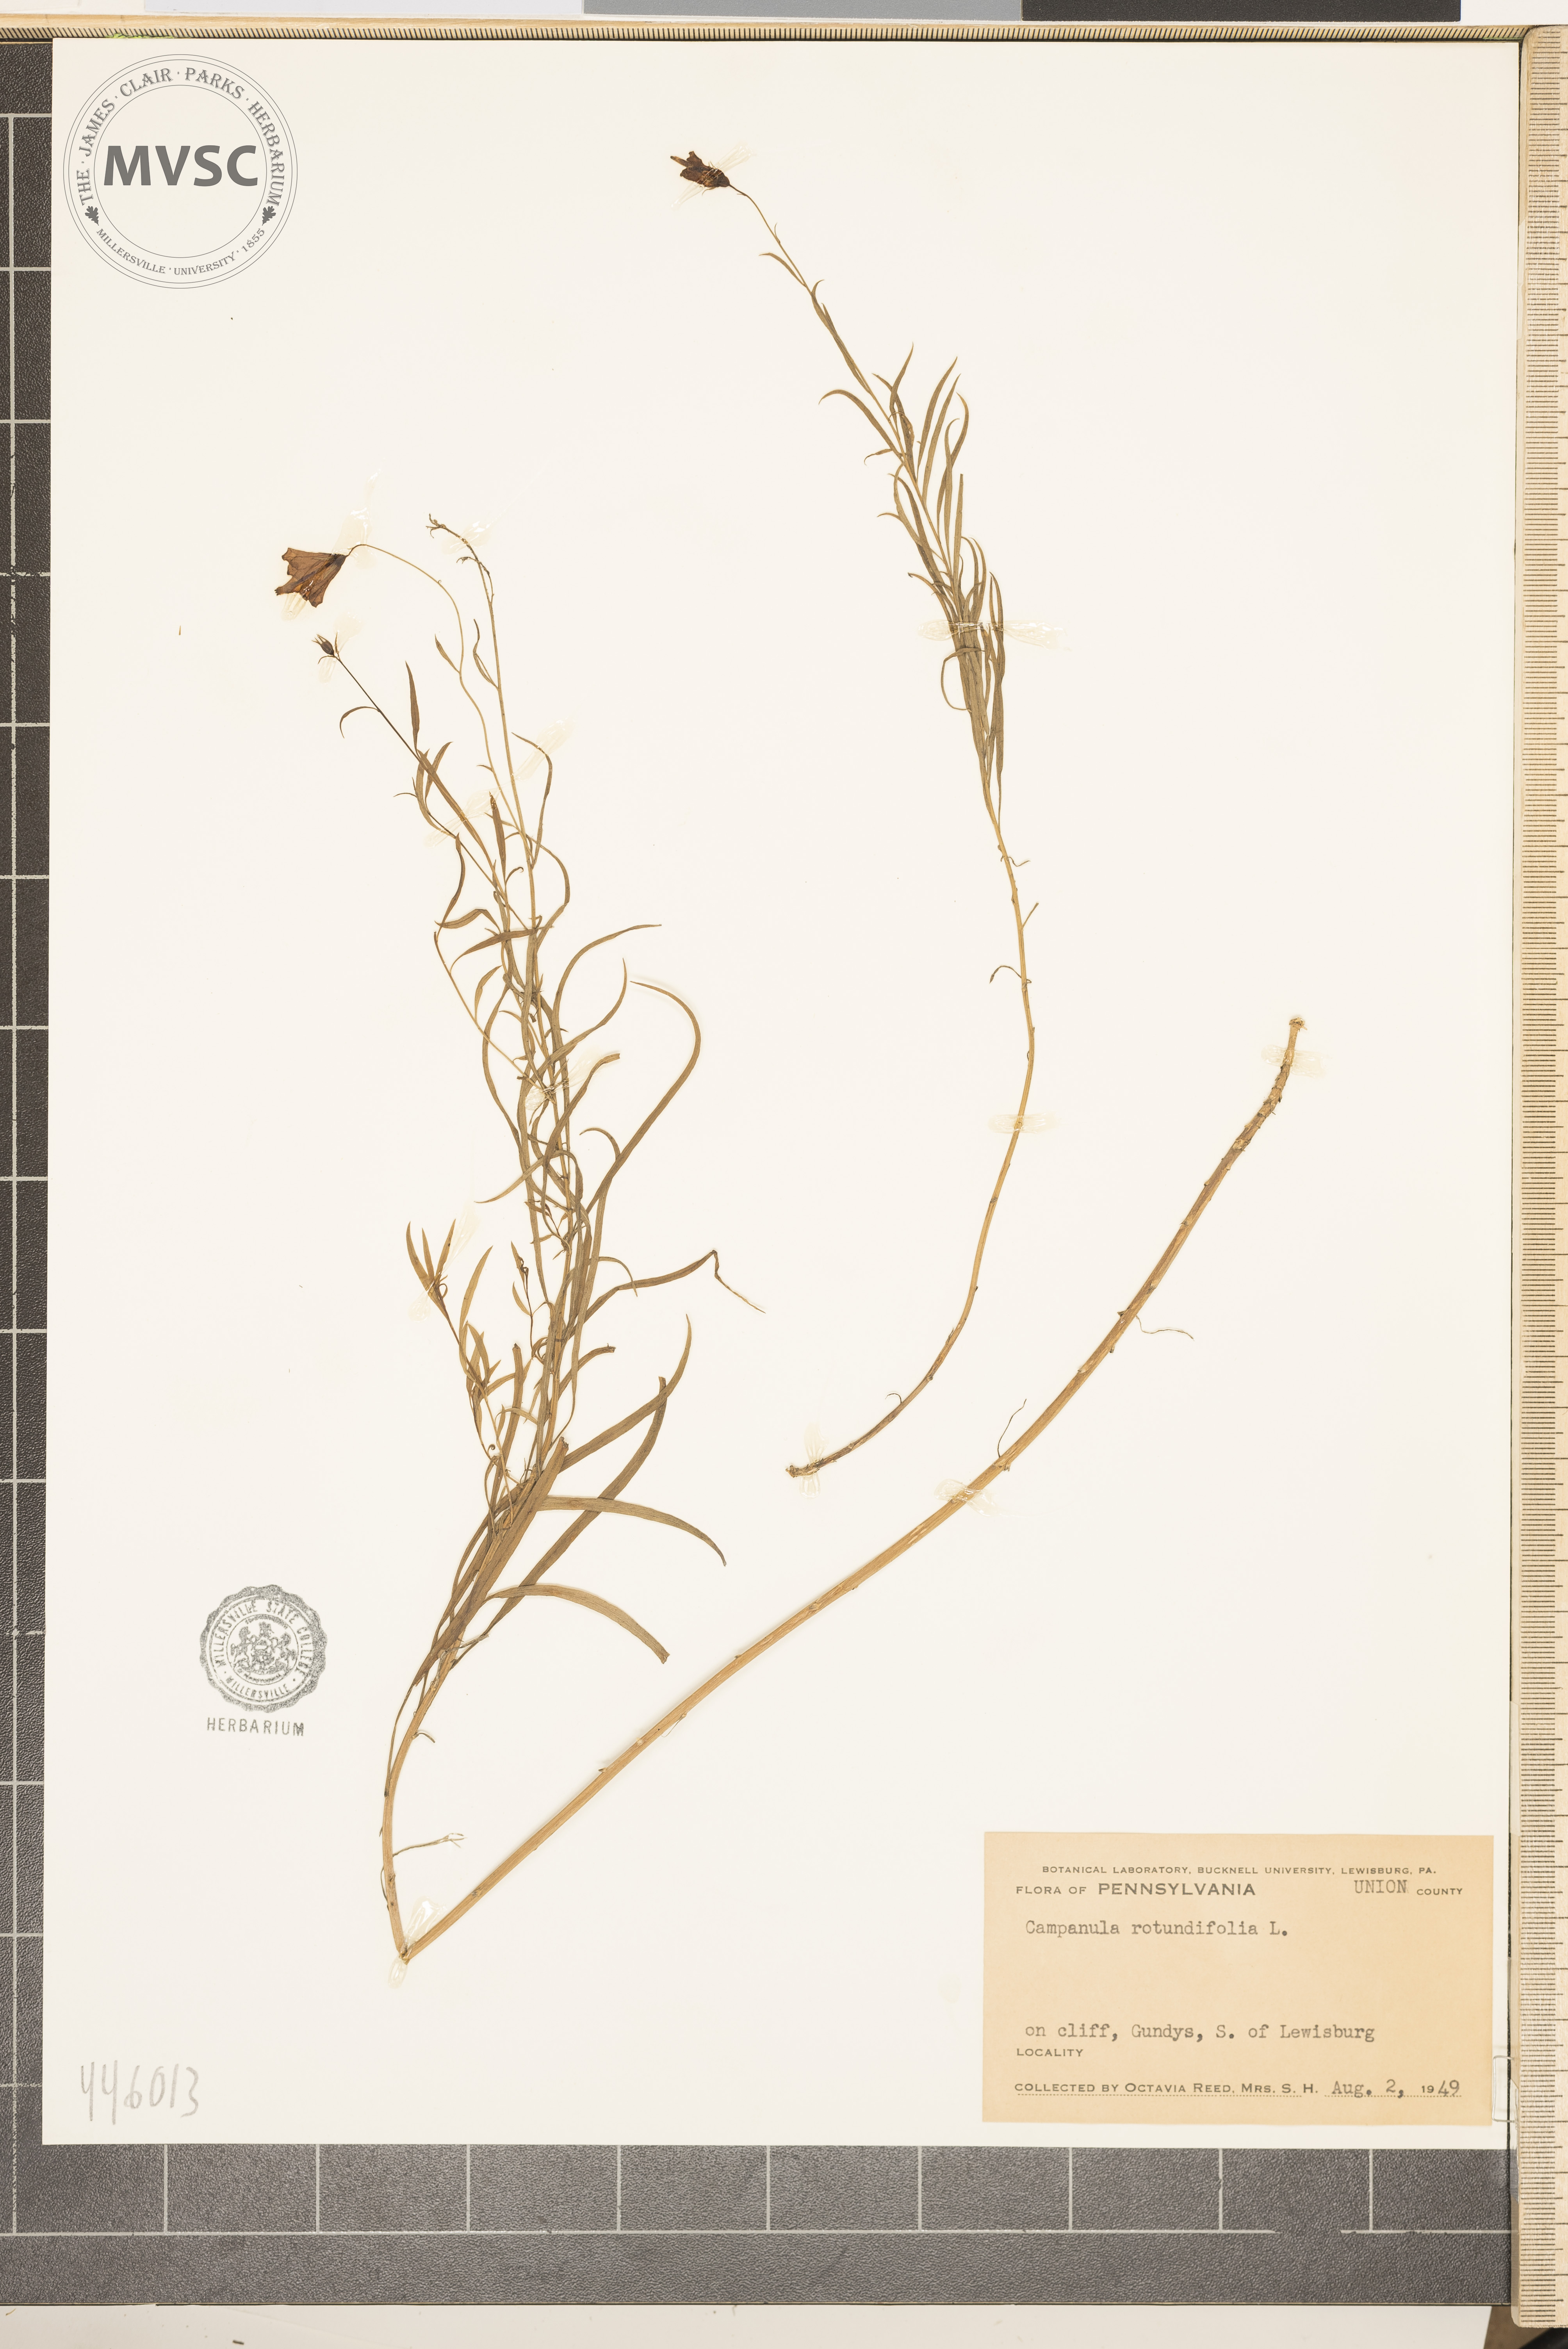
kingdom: Plantae
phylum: Tracheophyta
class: Magnoliopsida
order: Asterales
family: Campanulaceae
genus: Campanula
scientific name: Campanula rotundifolia
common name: Harebell
